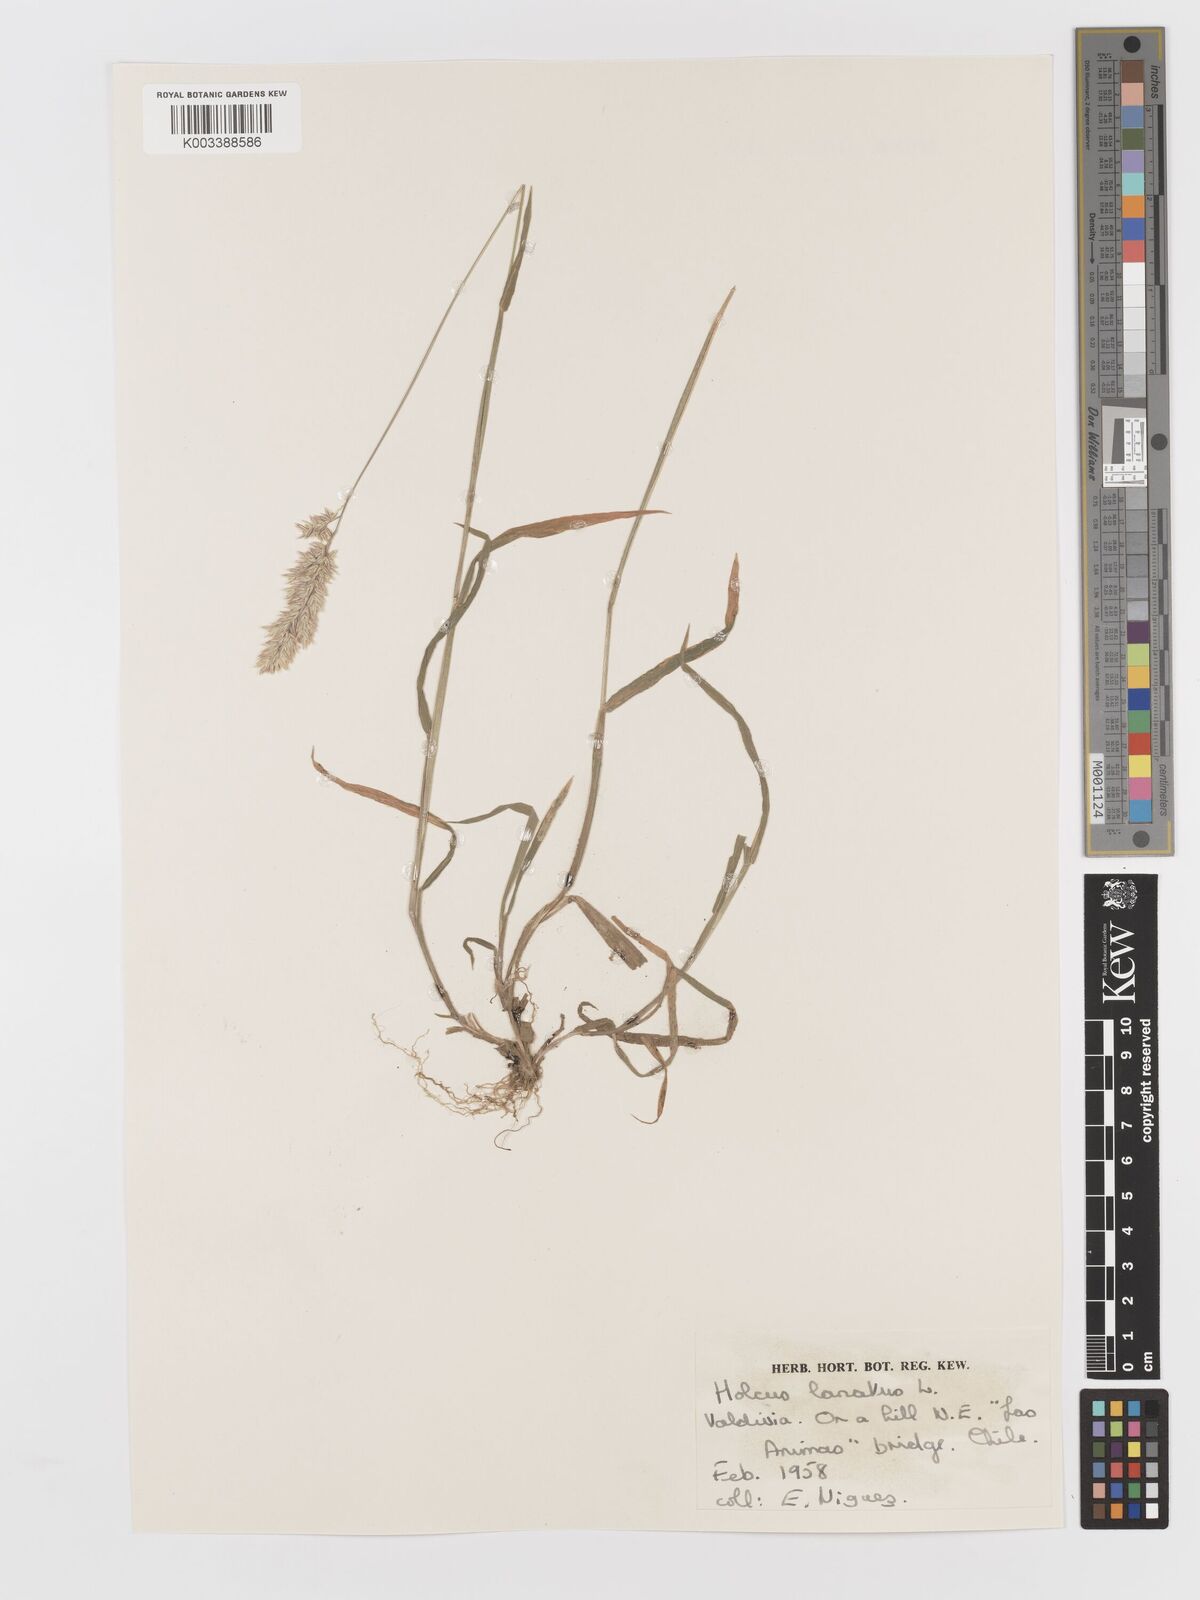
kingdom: Plantae
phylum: Tracheophyta
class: Liliopsida
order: Poales
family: Poaceae
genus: Holcus
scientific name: Holcus lanatus
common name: Yorkshire-fog
